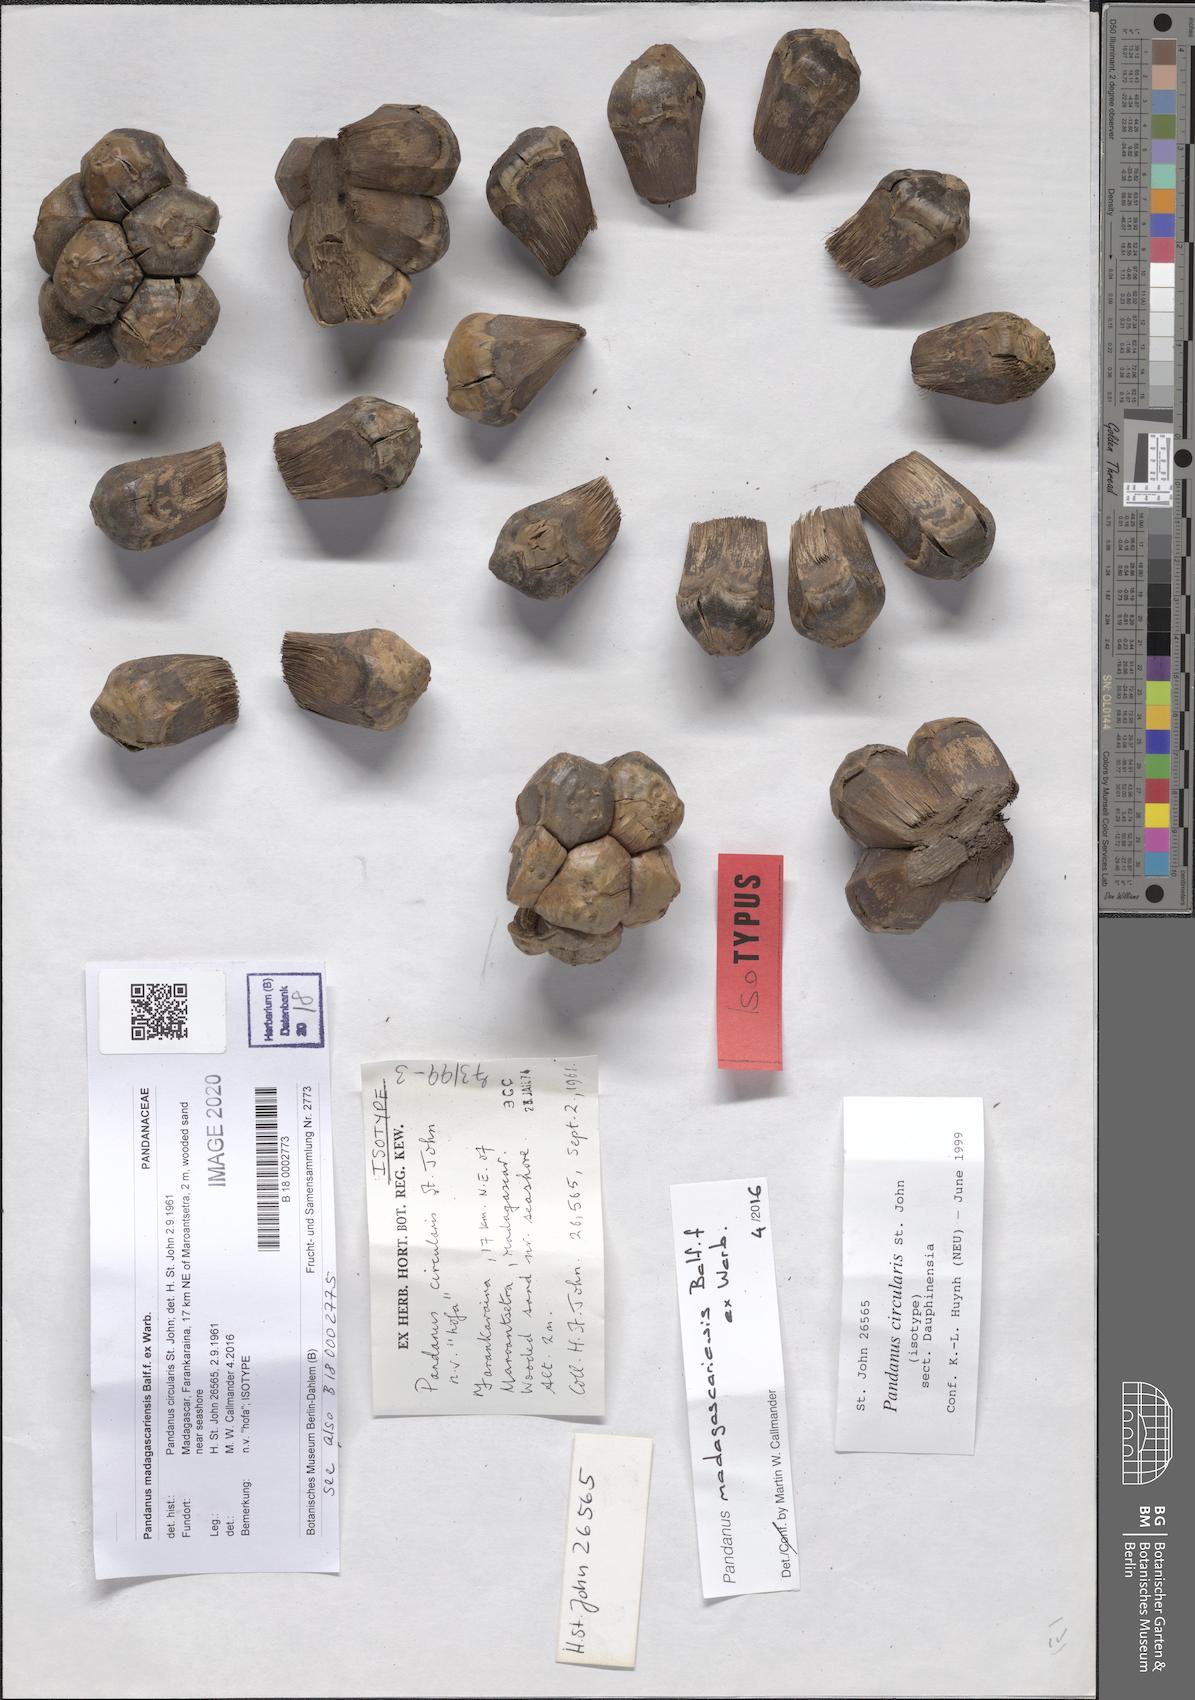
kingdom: Plantae
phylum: Tracheophyta
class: Liliopsida
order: Pandanales
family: Pandanaceae
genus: Pandanus
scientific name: Pandanus concretus
